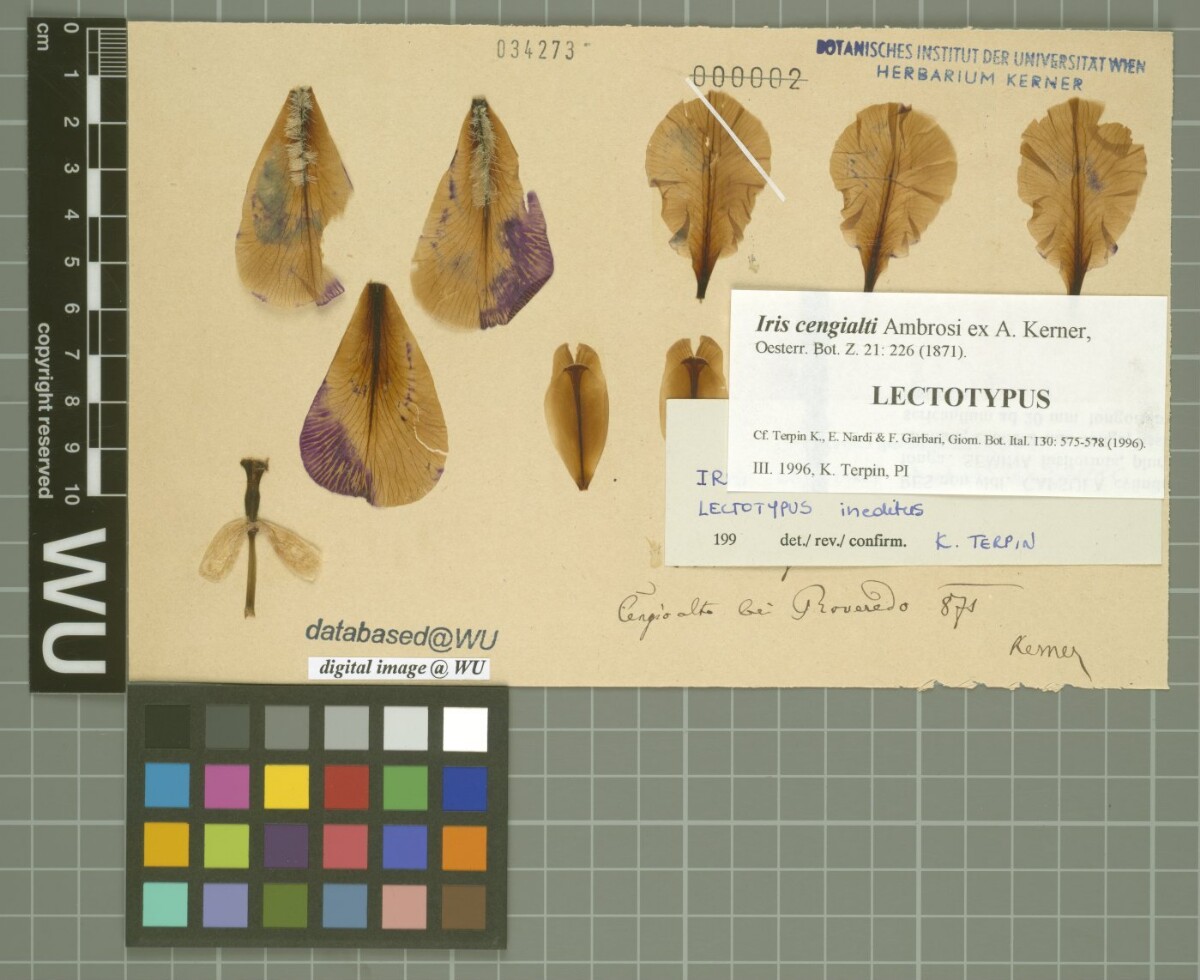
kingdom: Plantae
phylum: Tracheophyta
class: Liliopsida
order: Asparagales
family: Iridaceae
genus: Iris
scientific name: Iris pallida
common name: Sweet iris
